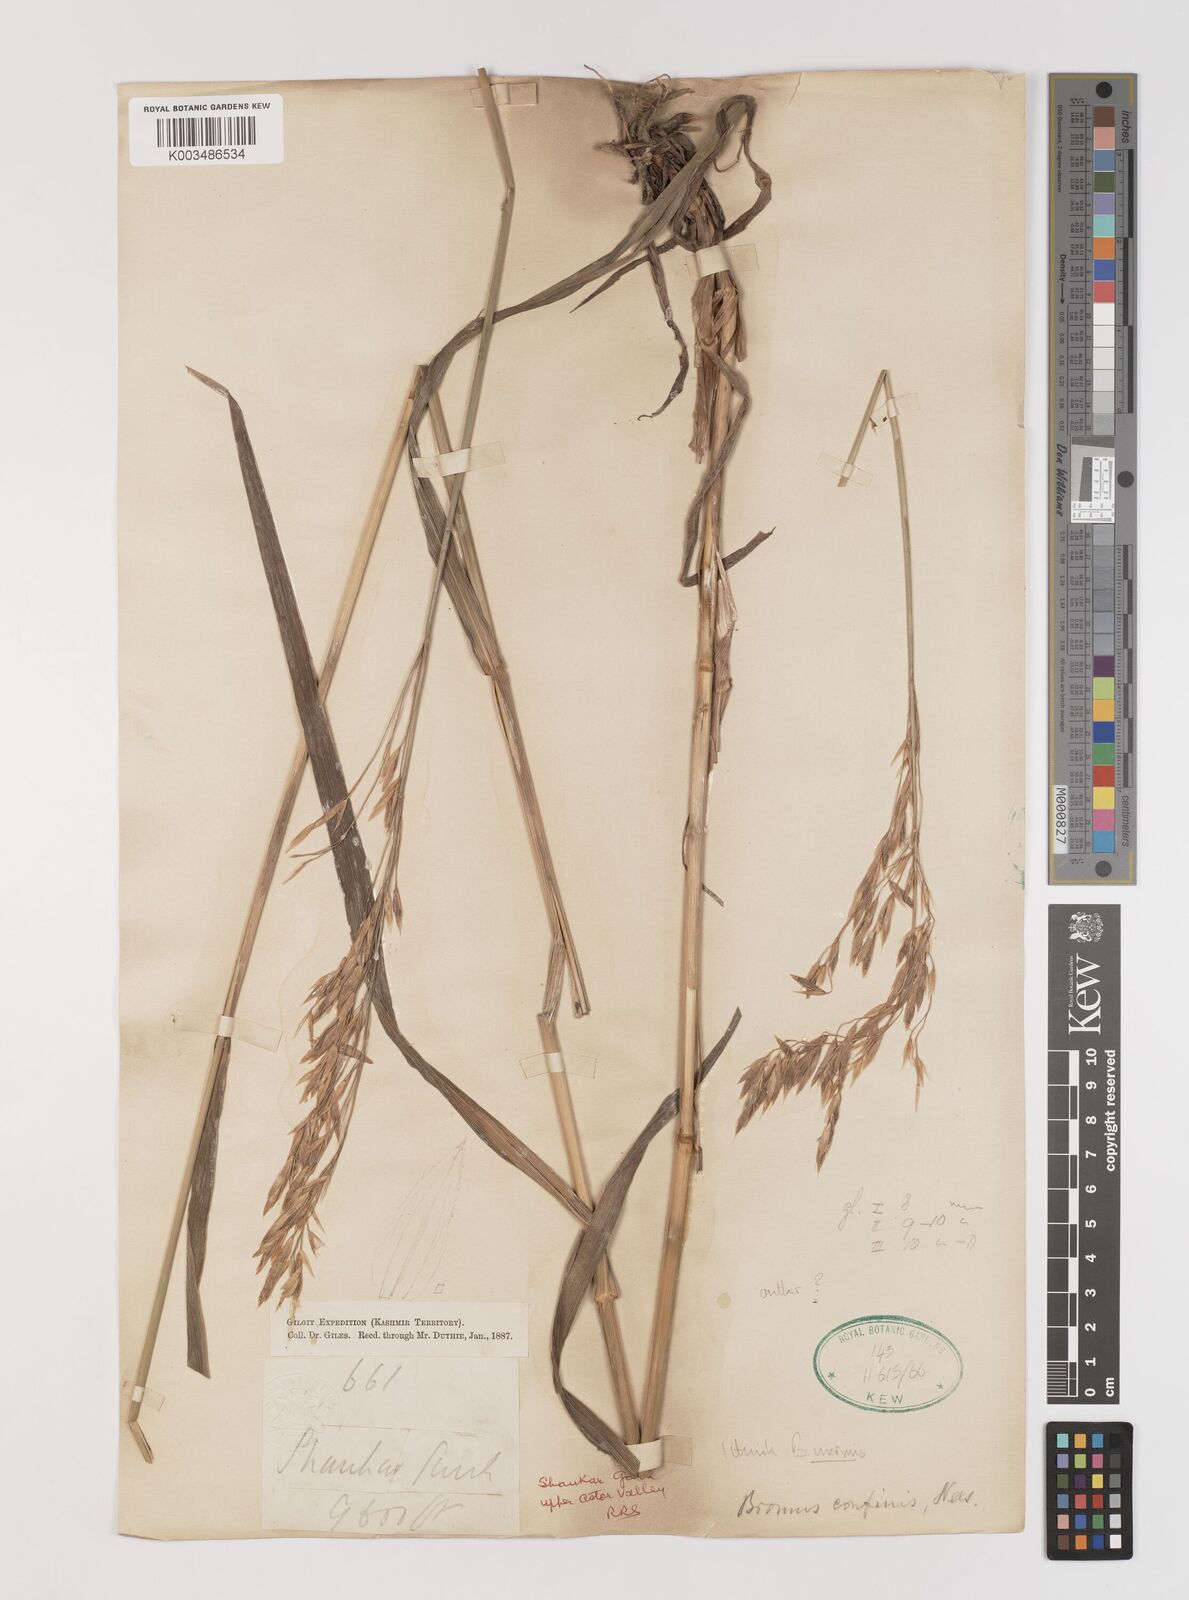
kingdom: Plantae
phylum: Tracheophyta
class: Liliopsida
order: Poales
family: Poaceae
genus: Bromus
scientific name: Bromus inermis
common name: Smooth brome
